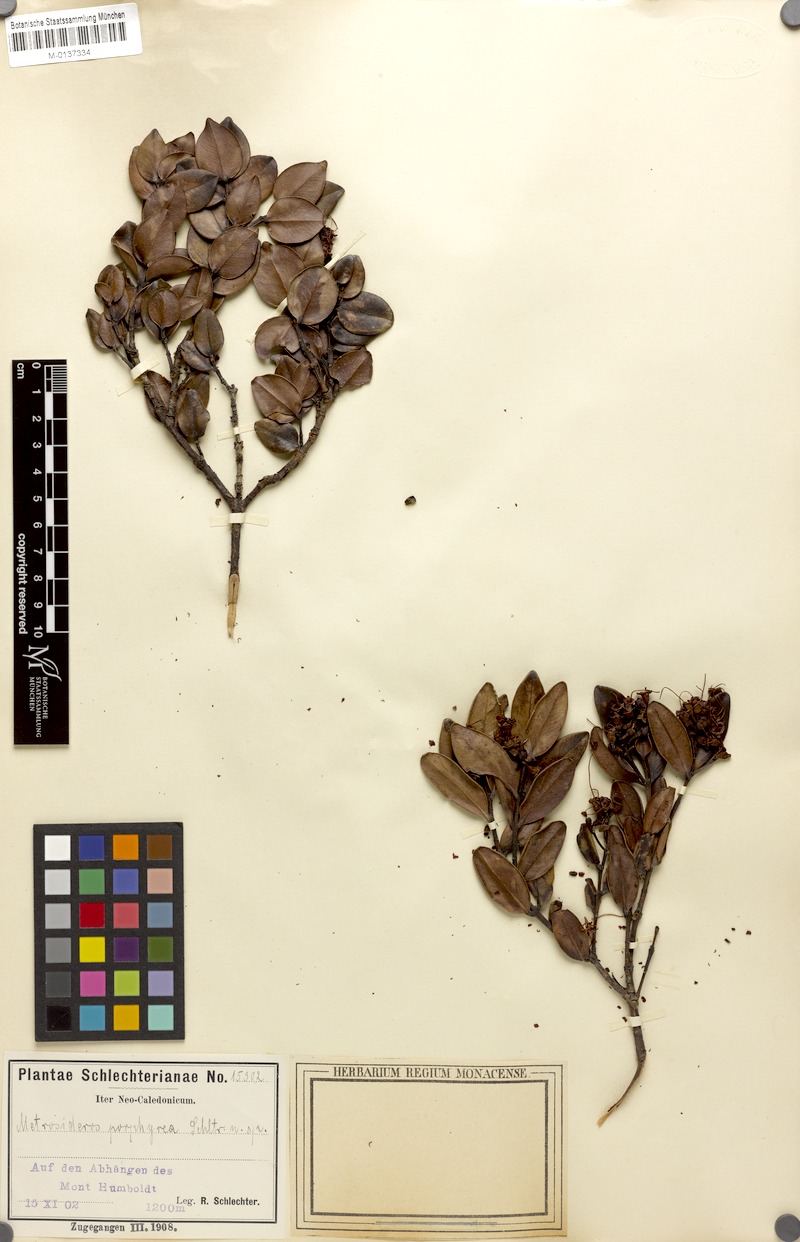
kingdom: Plantae
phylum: Tracheophyta
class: Magnoliopsida
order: Myrtales
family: Myrtaceae
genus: Metrosideros
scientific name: Metrosideros porphyrea
